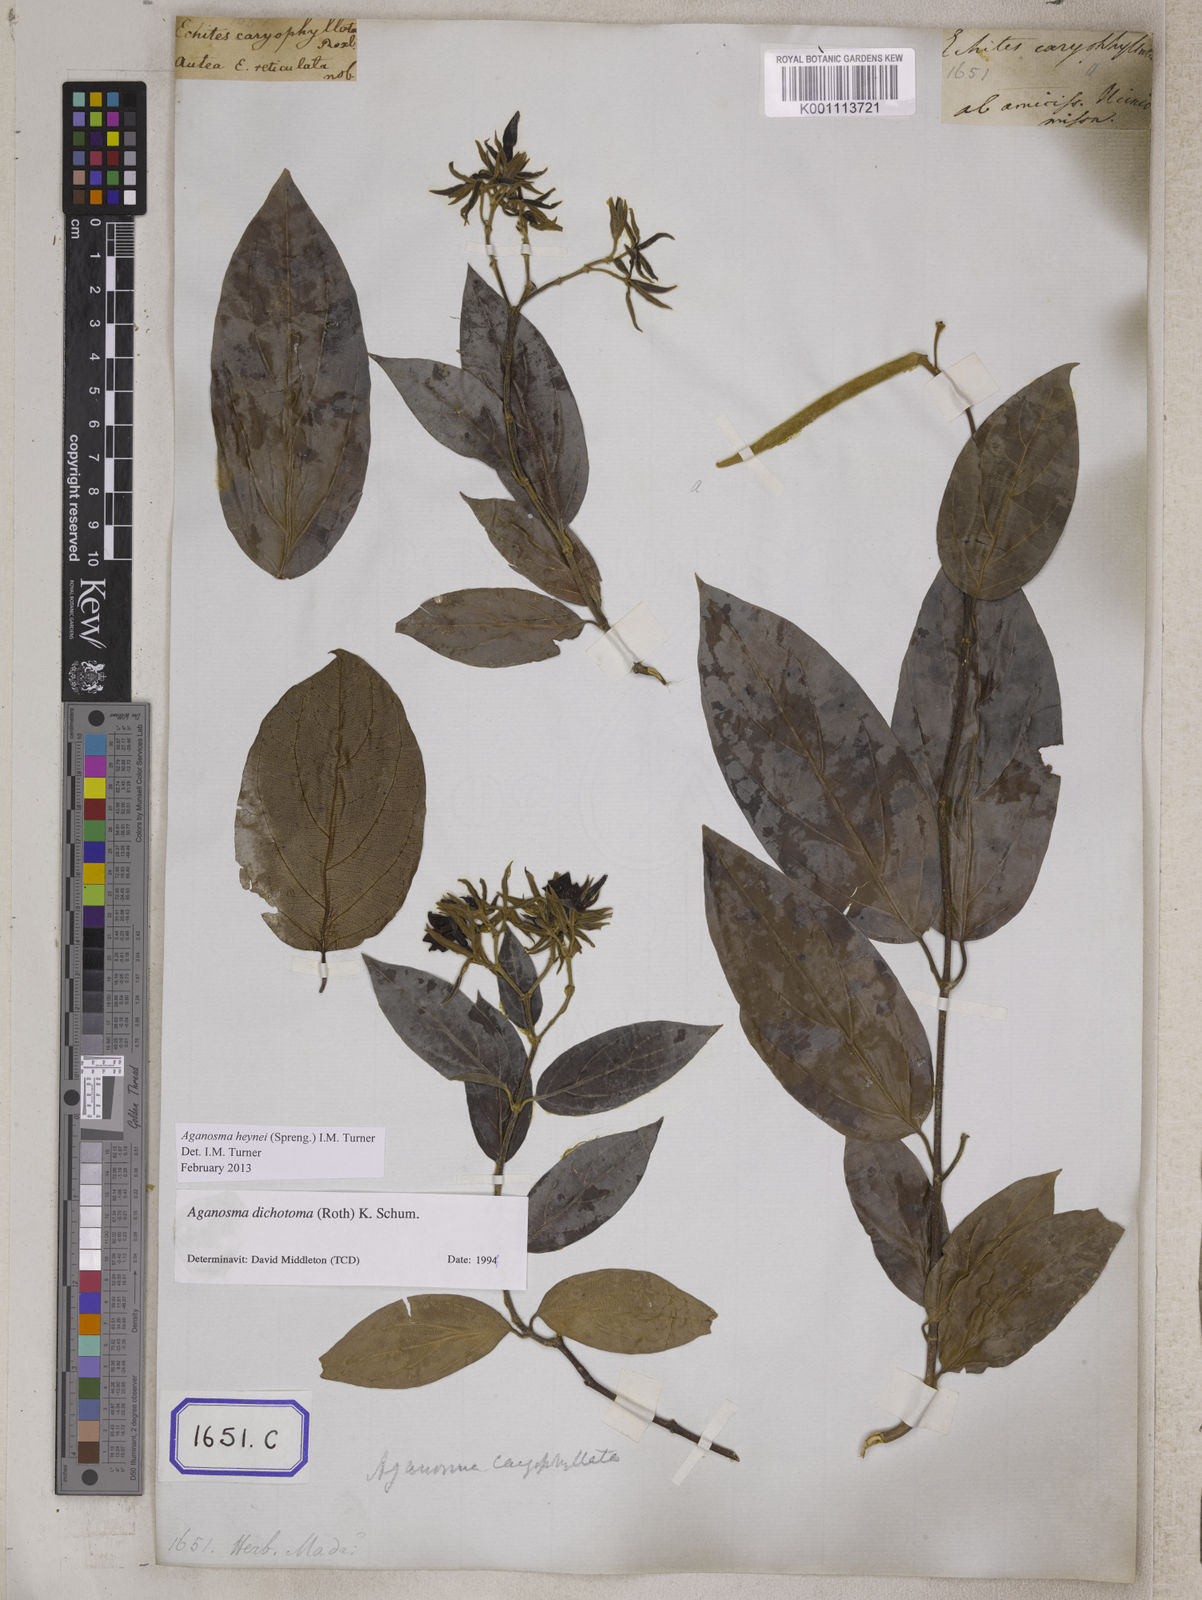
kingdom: Plantae
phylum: Tracheophyta
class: Magnoliopsida
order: Gentianales
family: Apocynaceae
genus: Kamettia
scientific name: Kamettia caryophyllata
